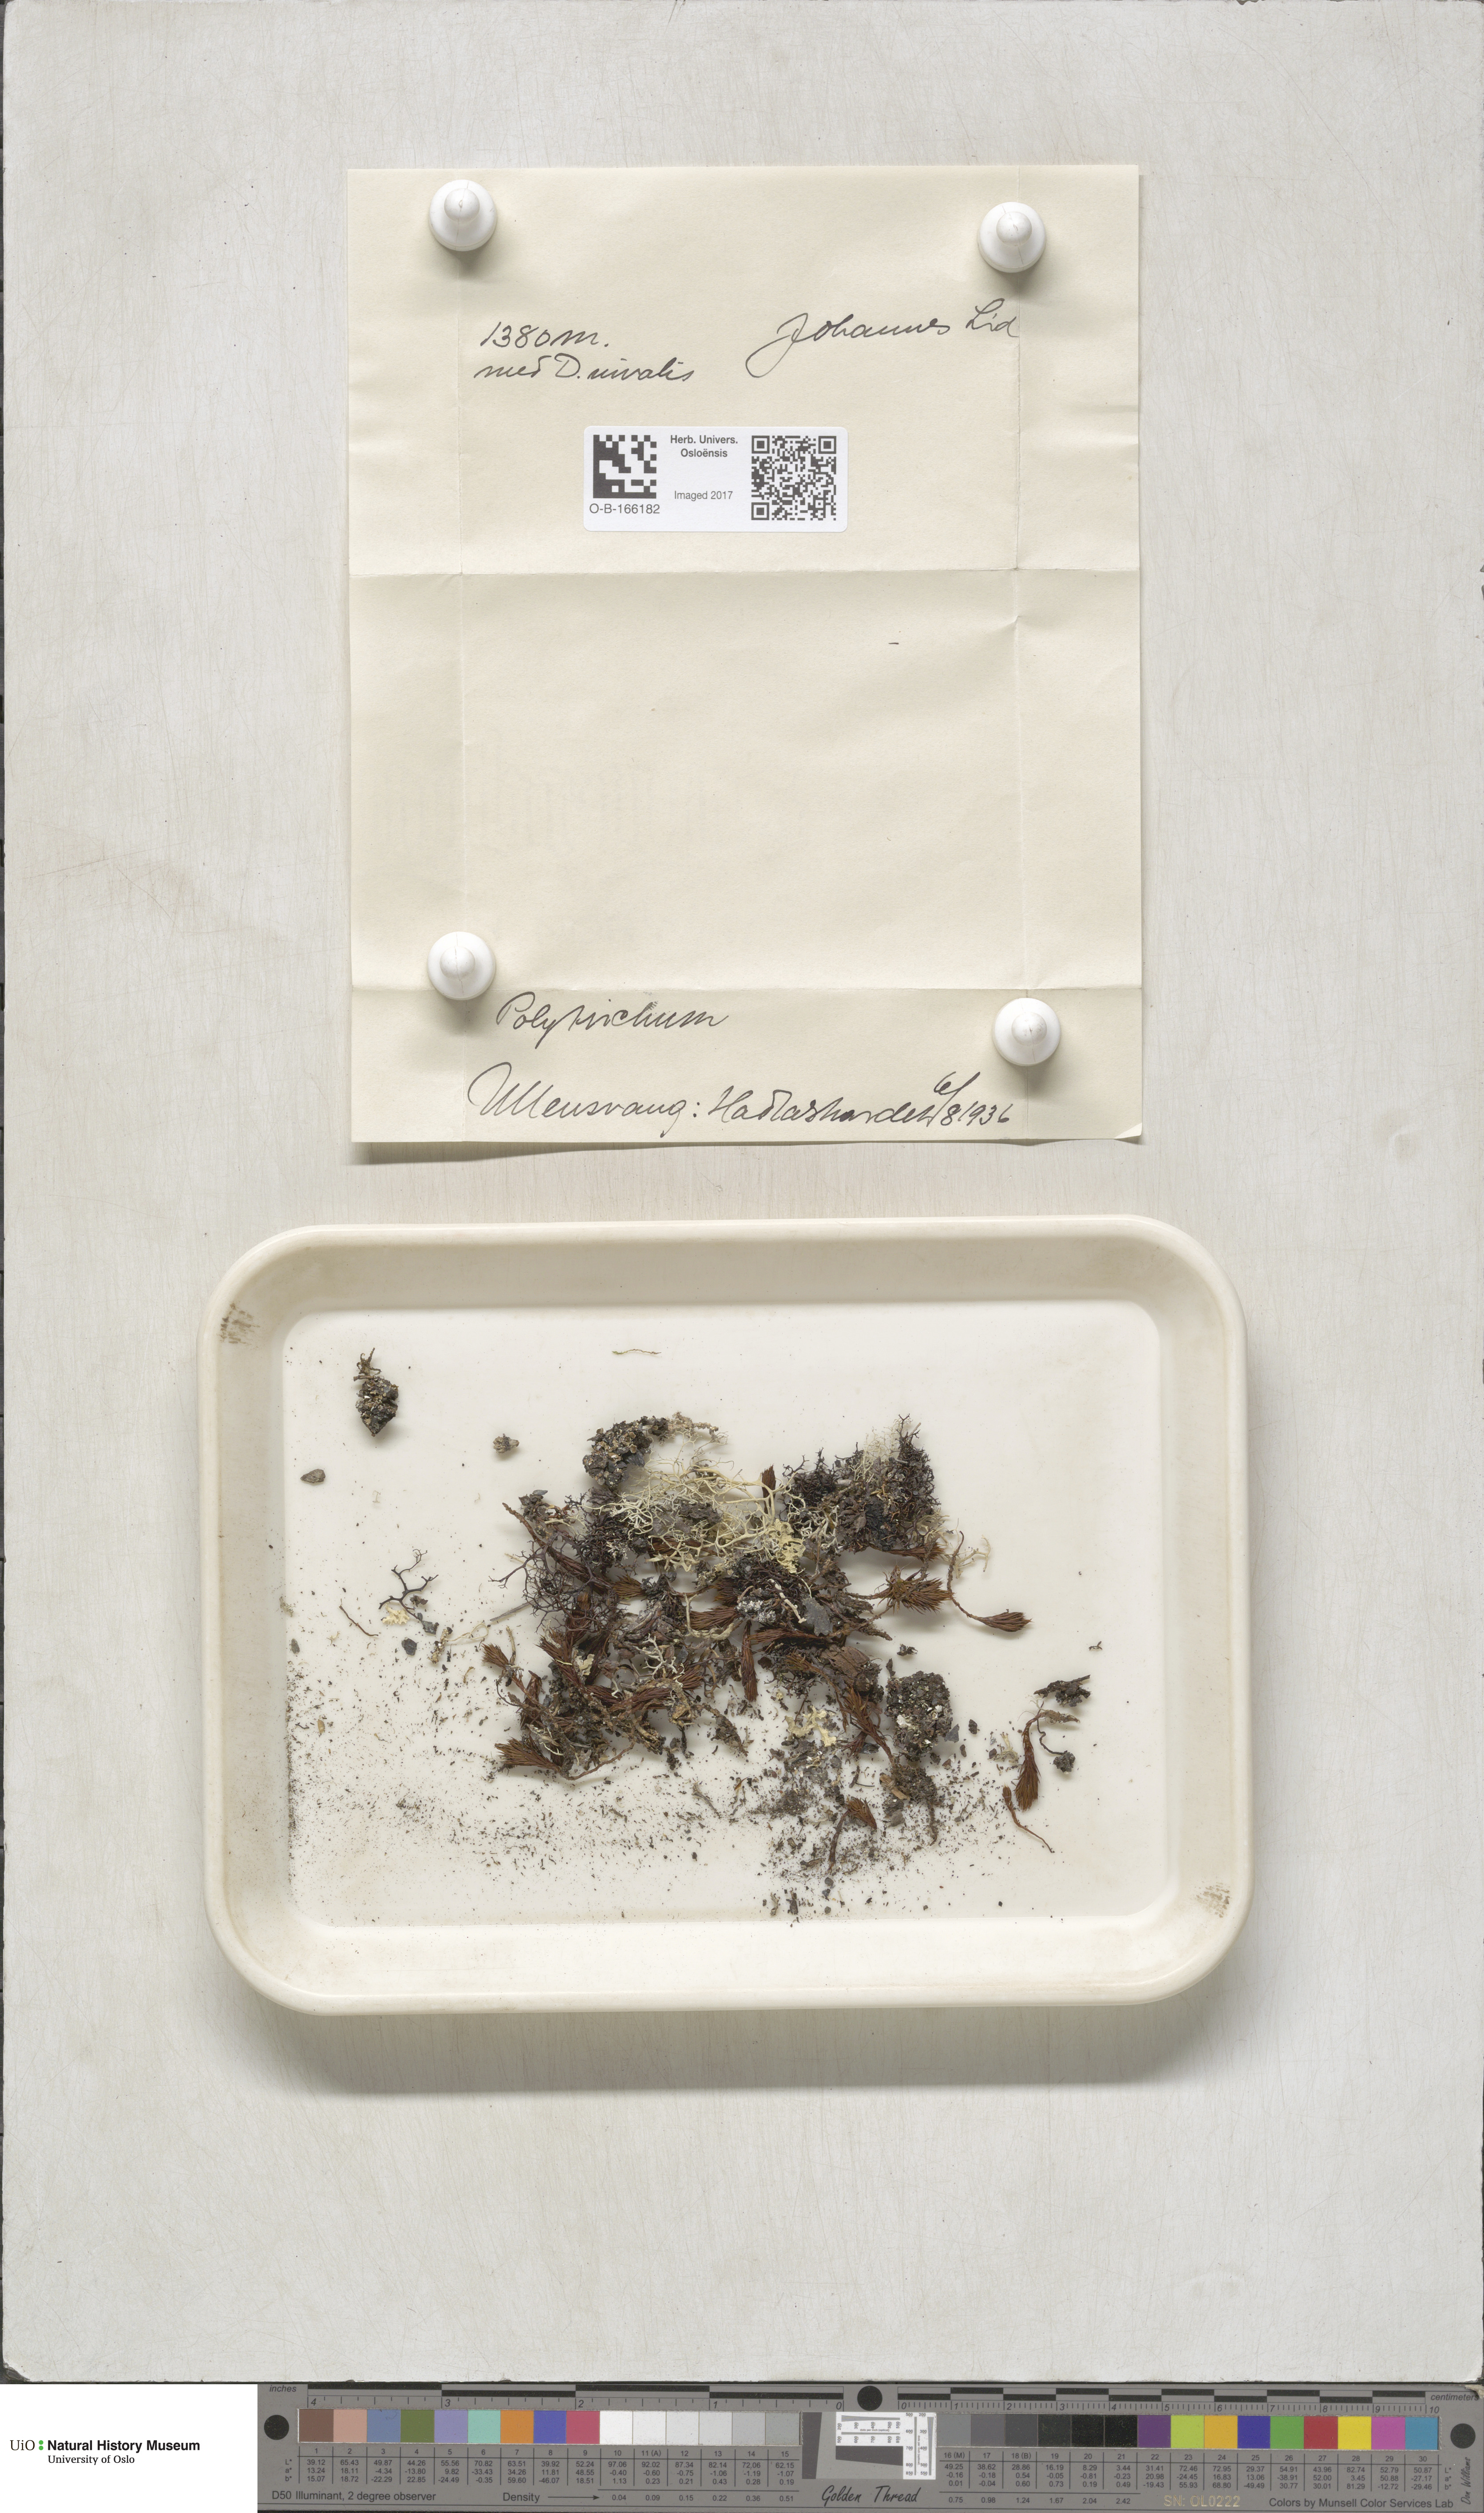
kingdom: Plantae
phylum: Bryophyta
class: Polytrichopsida
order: Polytrichales
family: Polytrichaceae
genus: Polytrichum
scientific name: Polytrichum
